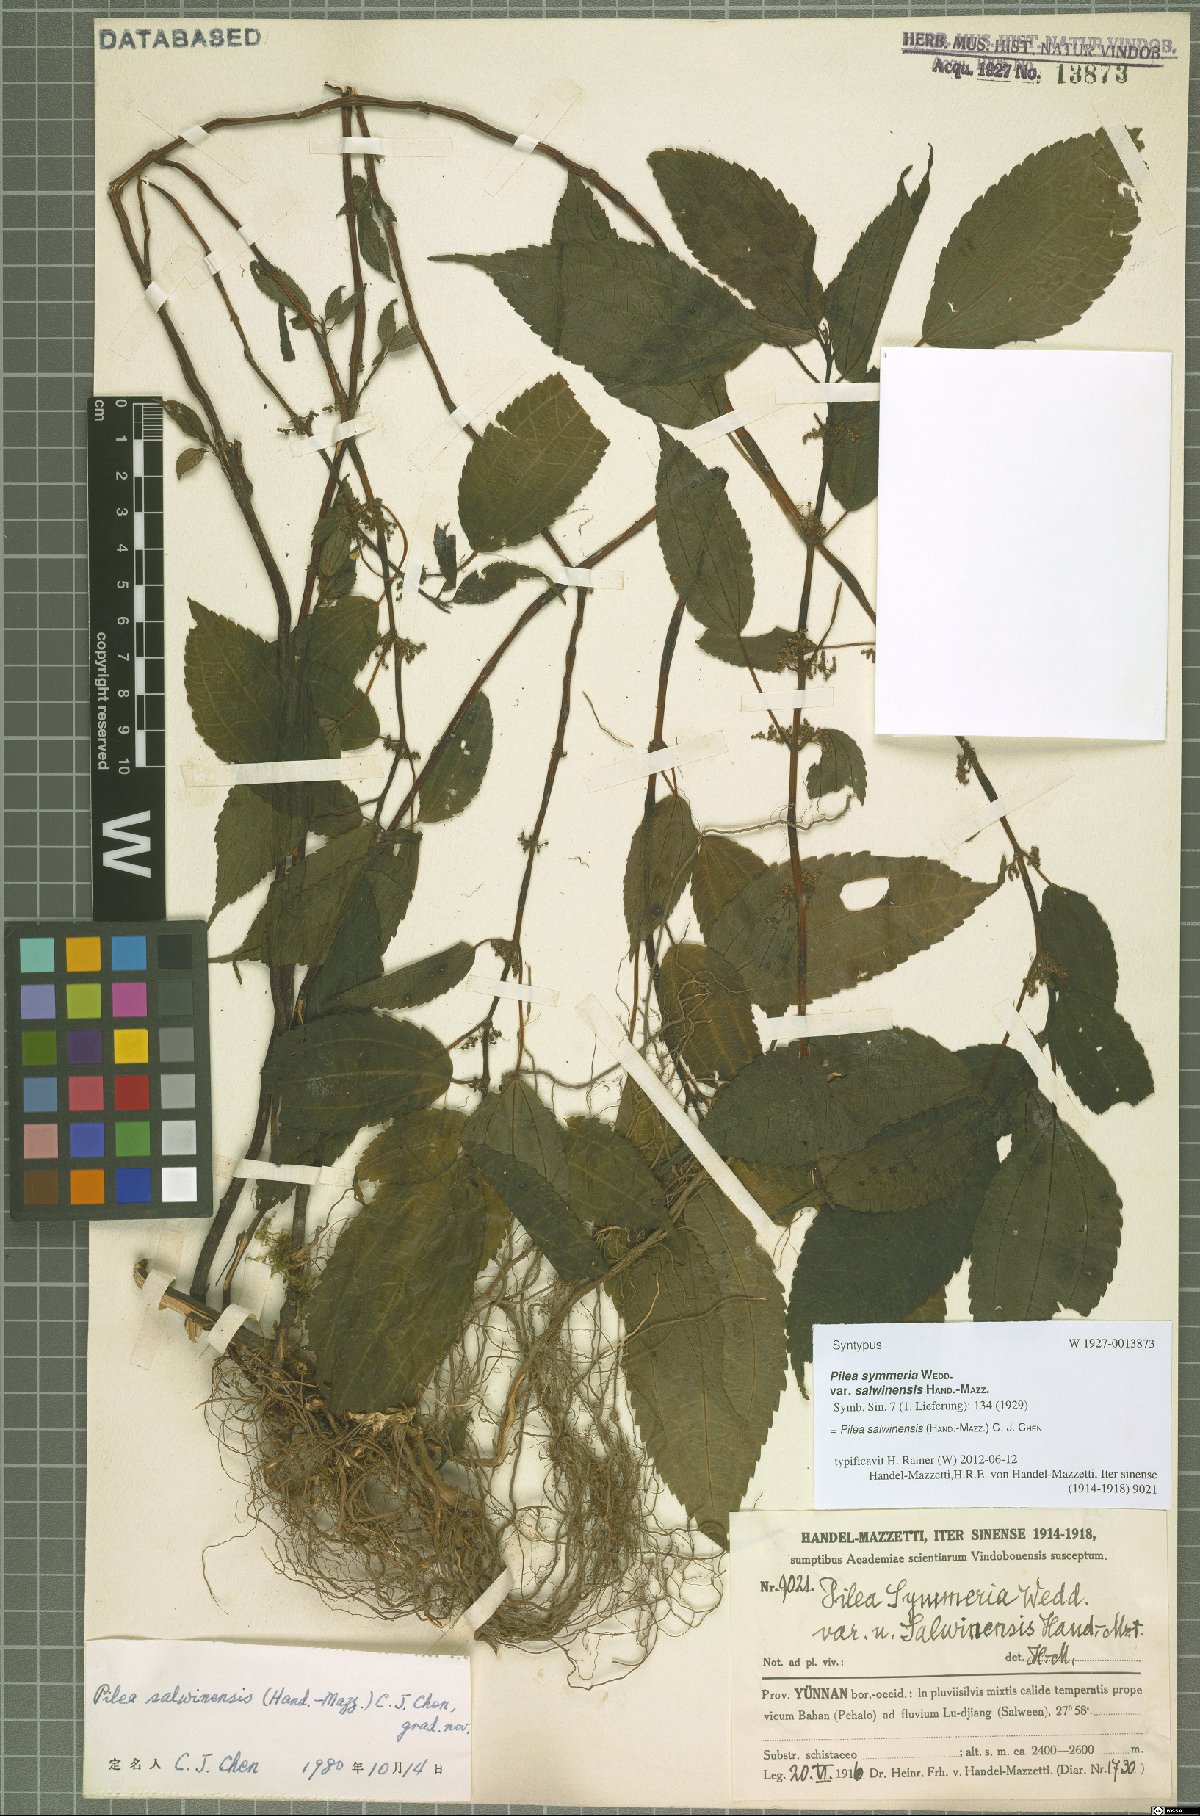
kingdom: Plantae
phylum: Tracheophyta
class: Magnoliopsida
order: Rosales
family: Urticaceae
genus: Pilea
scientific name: Pilea salwinensis
